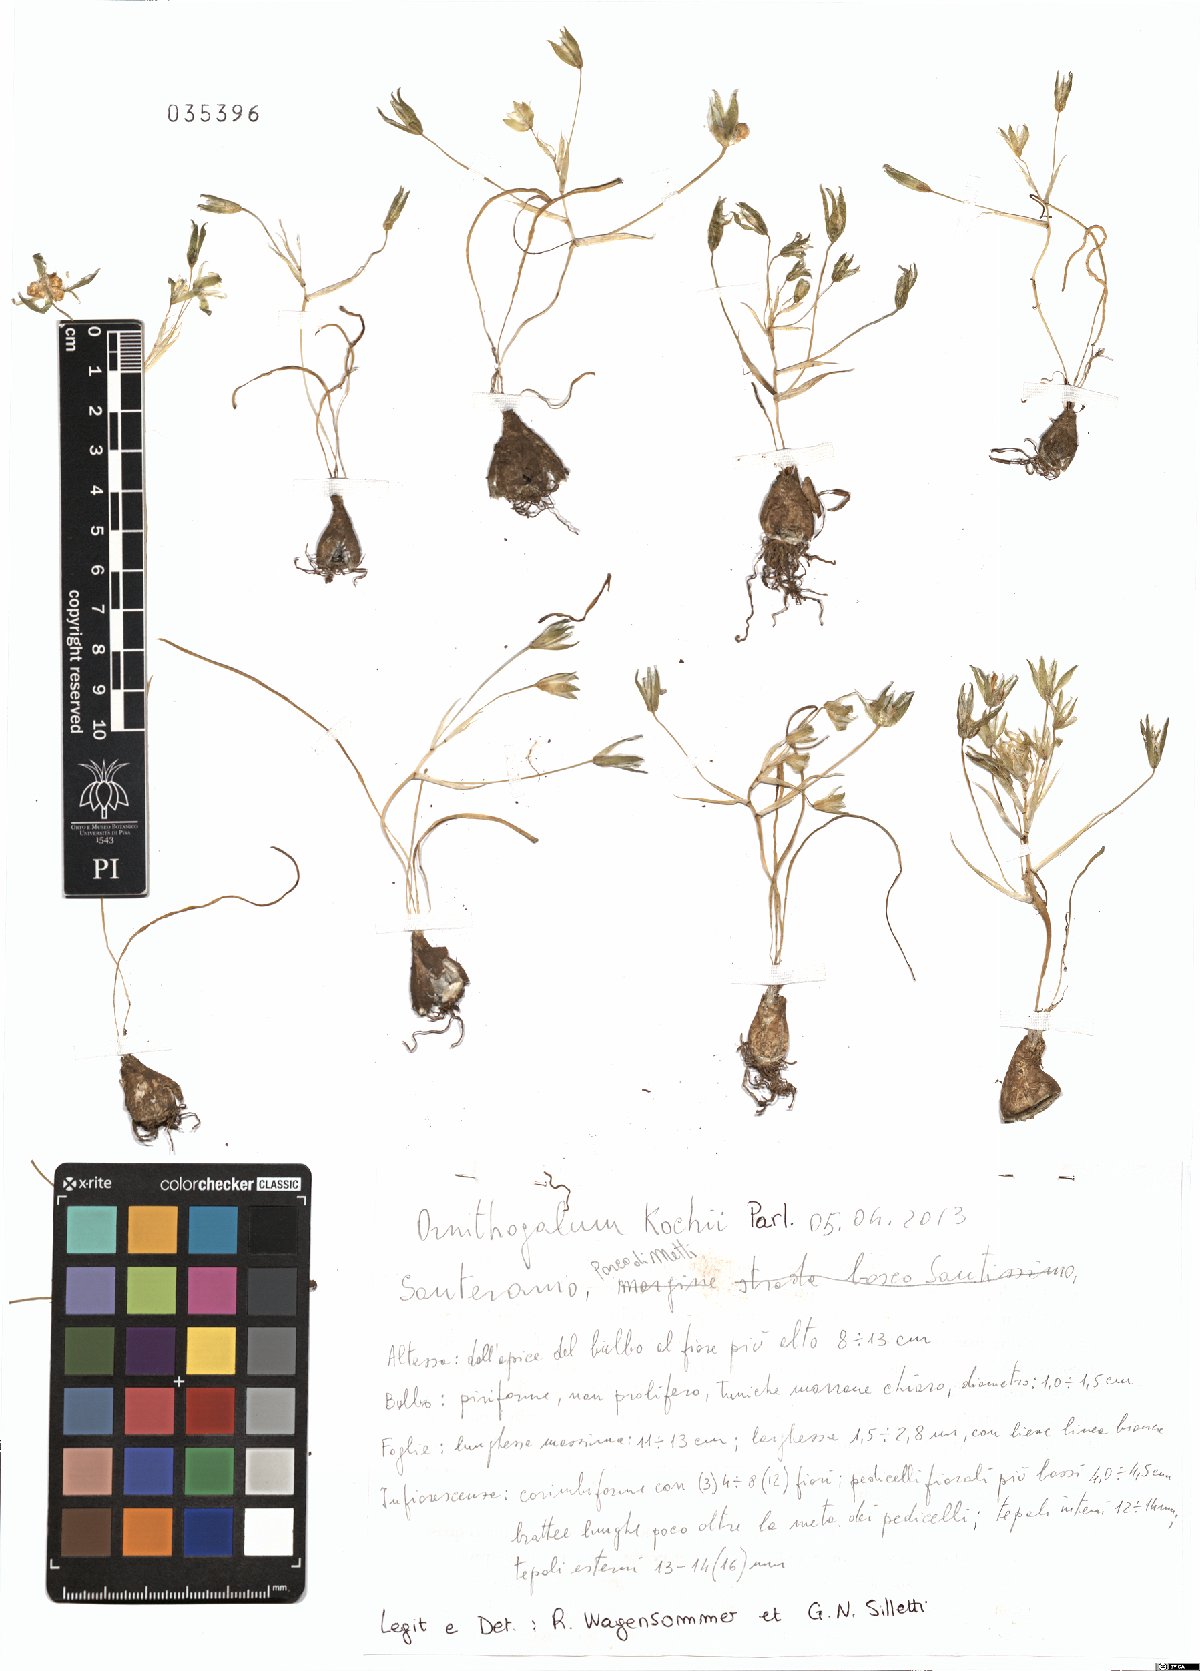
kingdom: Plantae
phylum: Tracheophyta
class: Liliopsida
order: Asparagales
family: Asparagaceae
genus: Ornithogalum
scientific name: Ornithogalum orthophyllum
